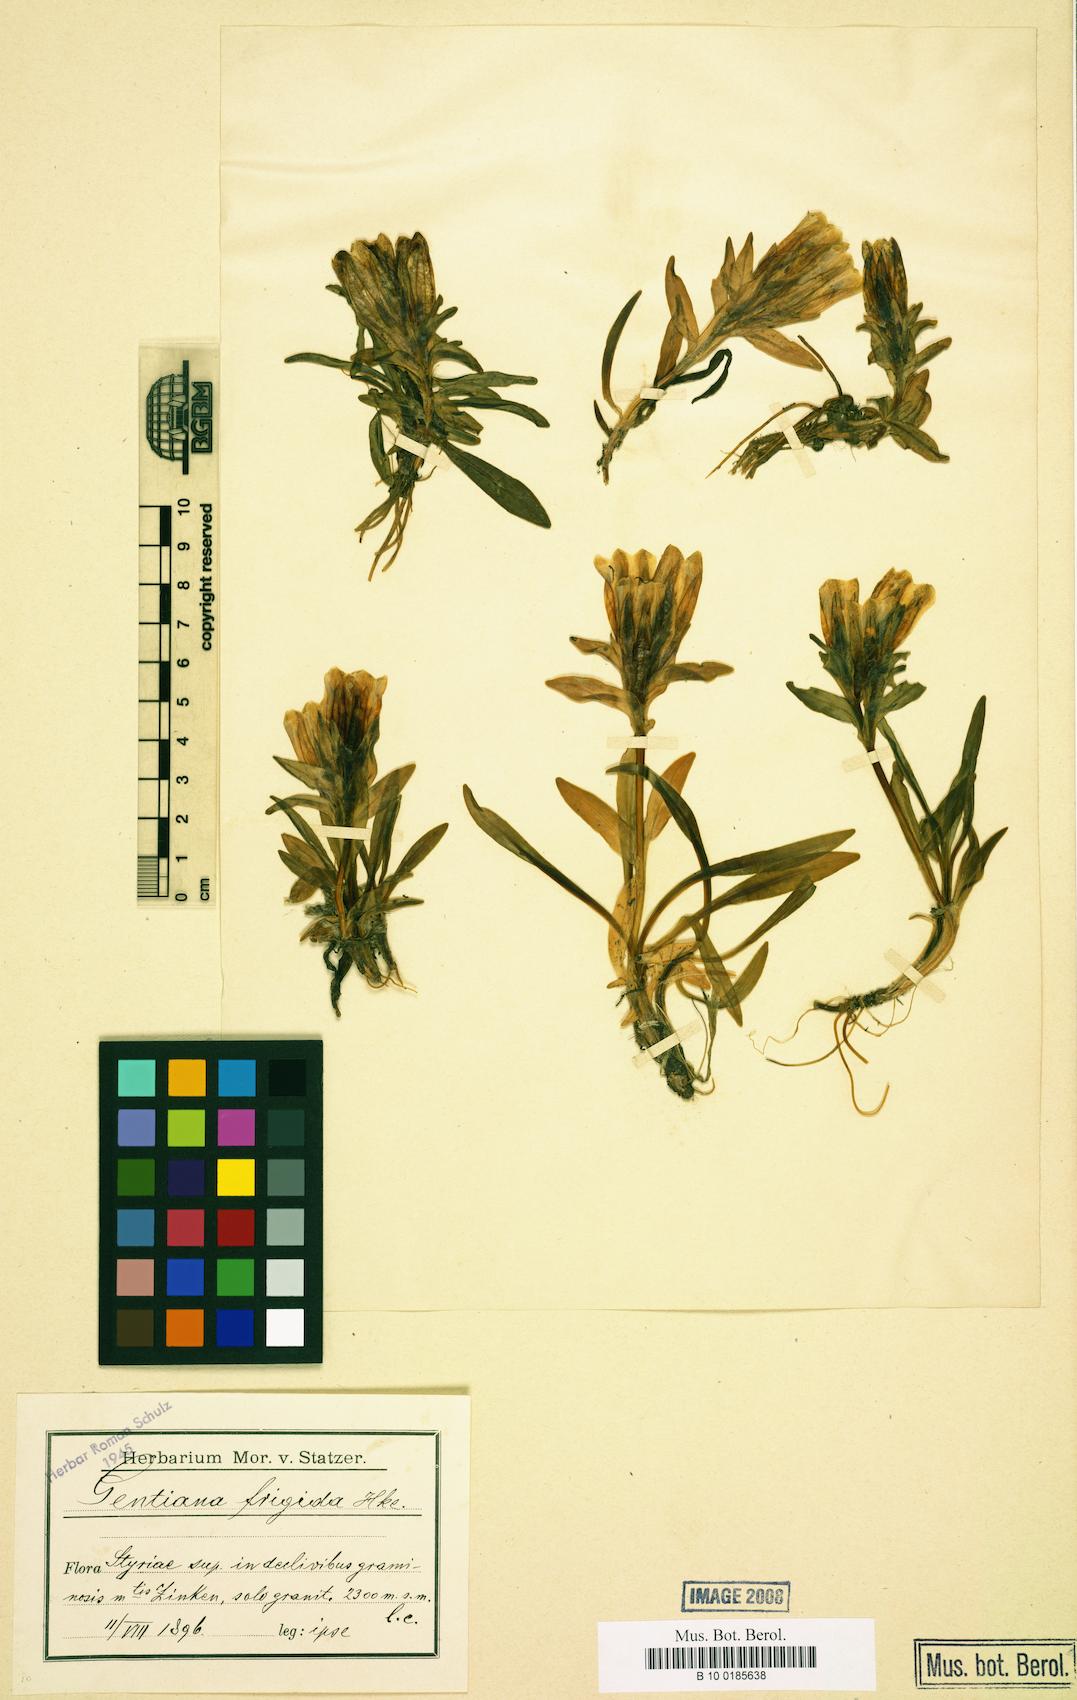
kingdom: Plantae
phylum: Tracheophyta
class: Magnoliopsida
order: Gentianales
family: Gentianaceae
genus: Gentiana
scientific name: Gentiana frigida
